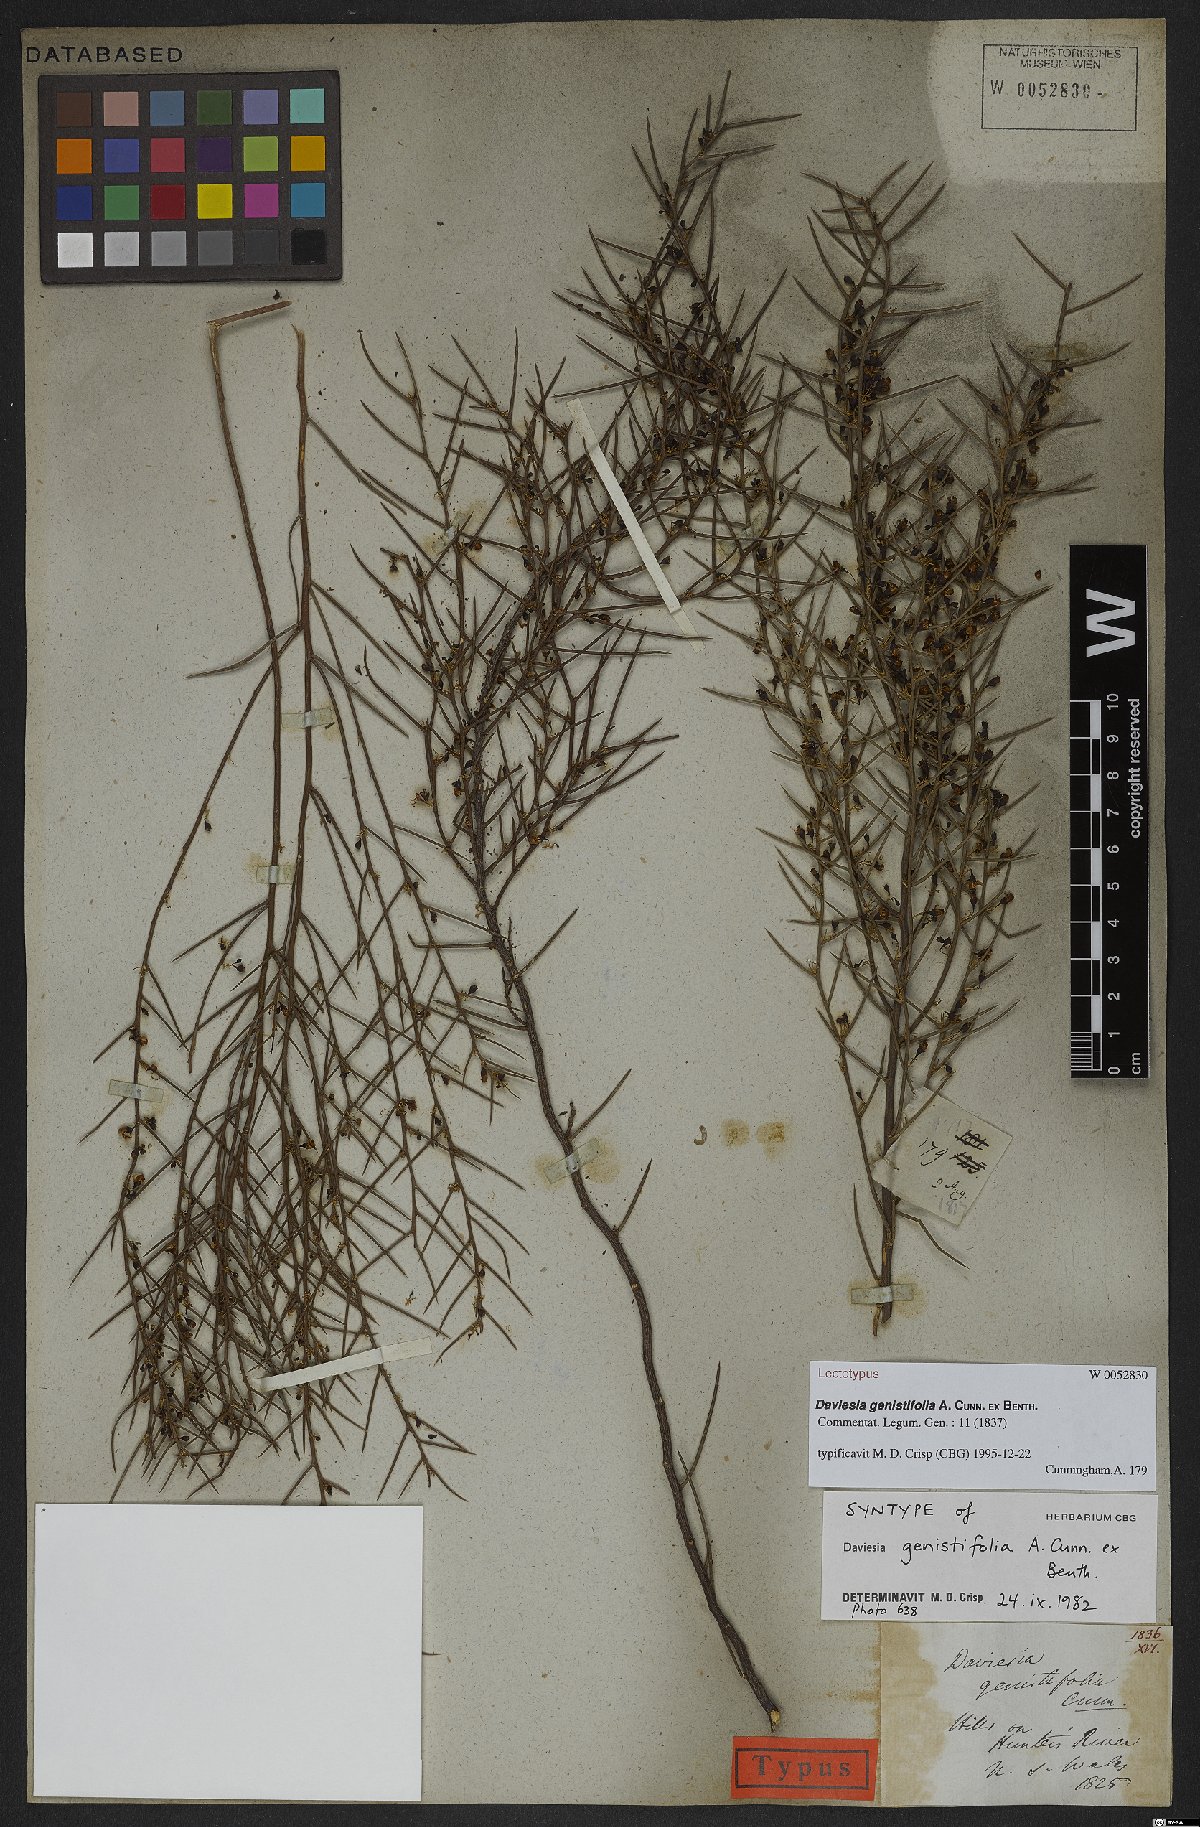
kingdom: Plantae
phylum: Tracheophyta
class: Magnoliopsida
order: Fabales
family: Fabaceae
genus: Daviesia
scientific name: Daviesia genistifolia
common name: Broom bitter-pea
